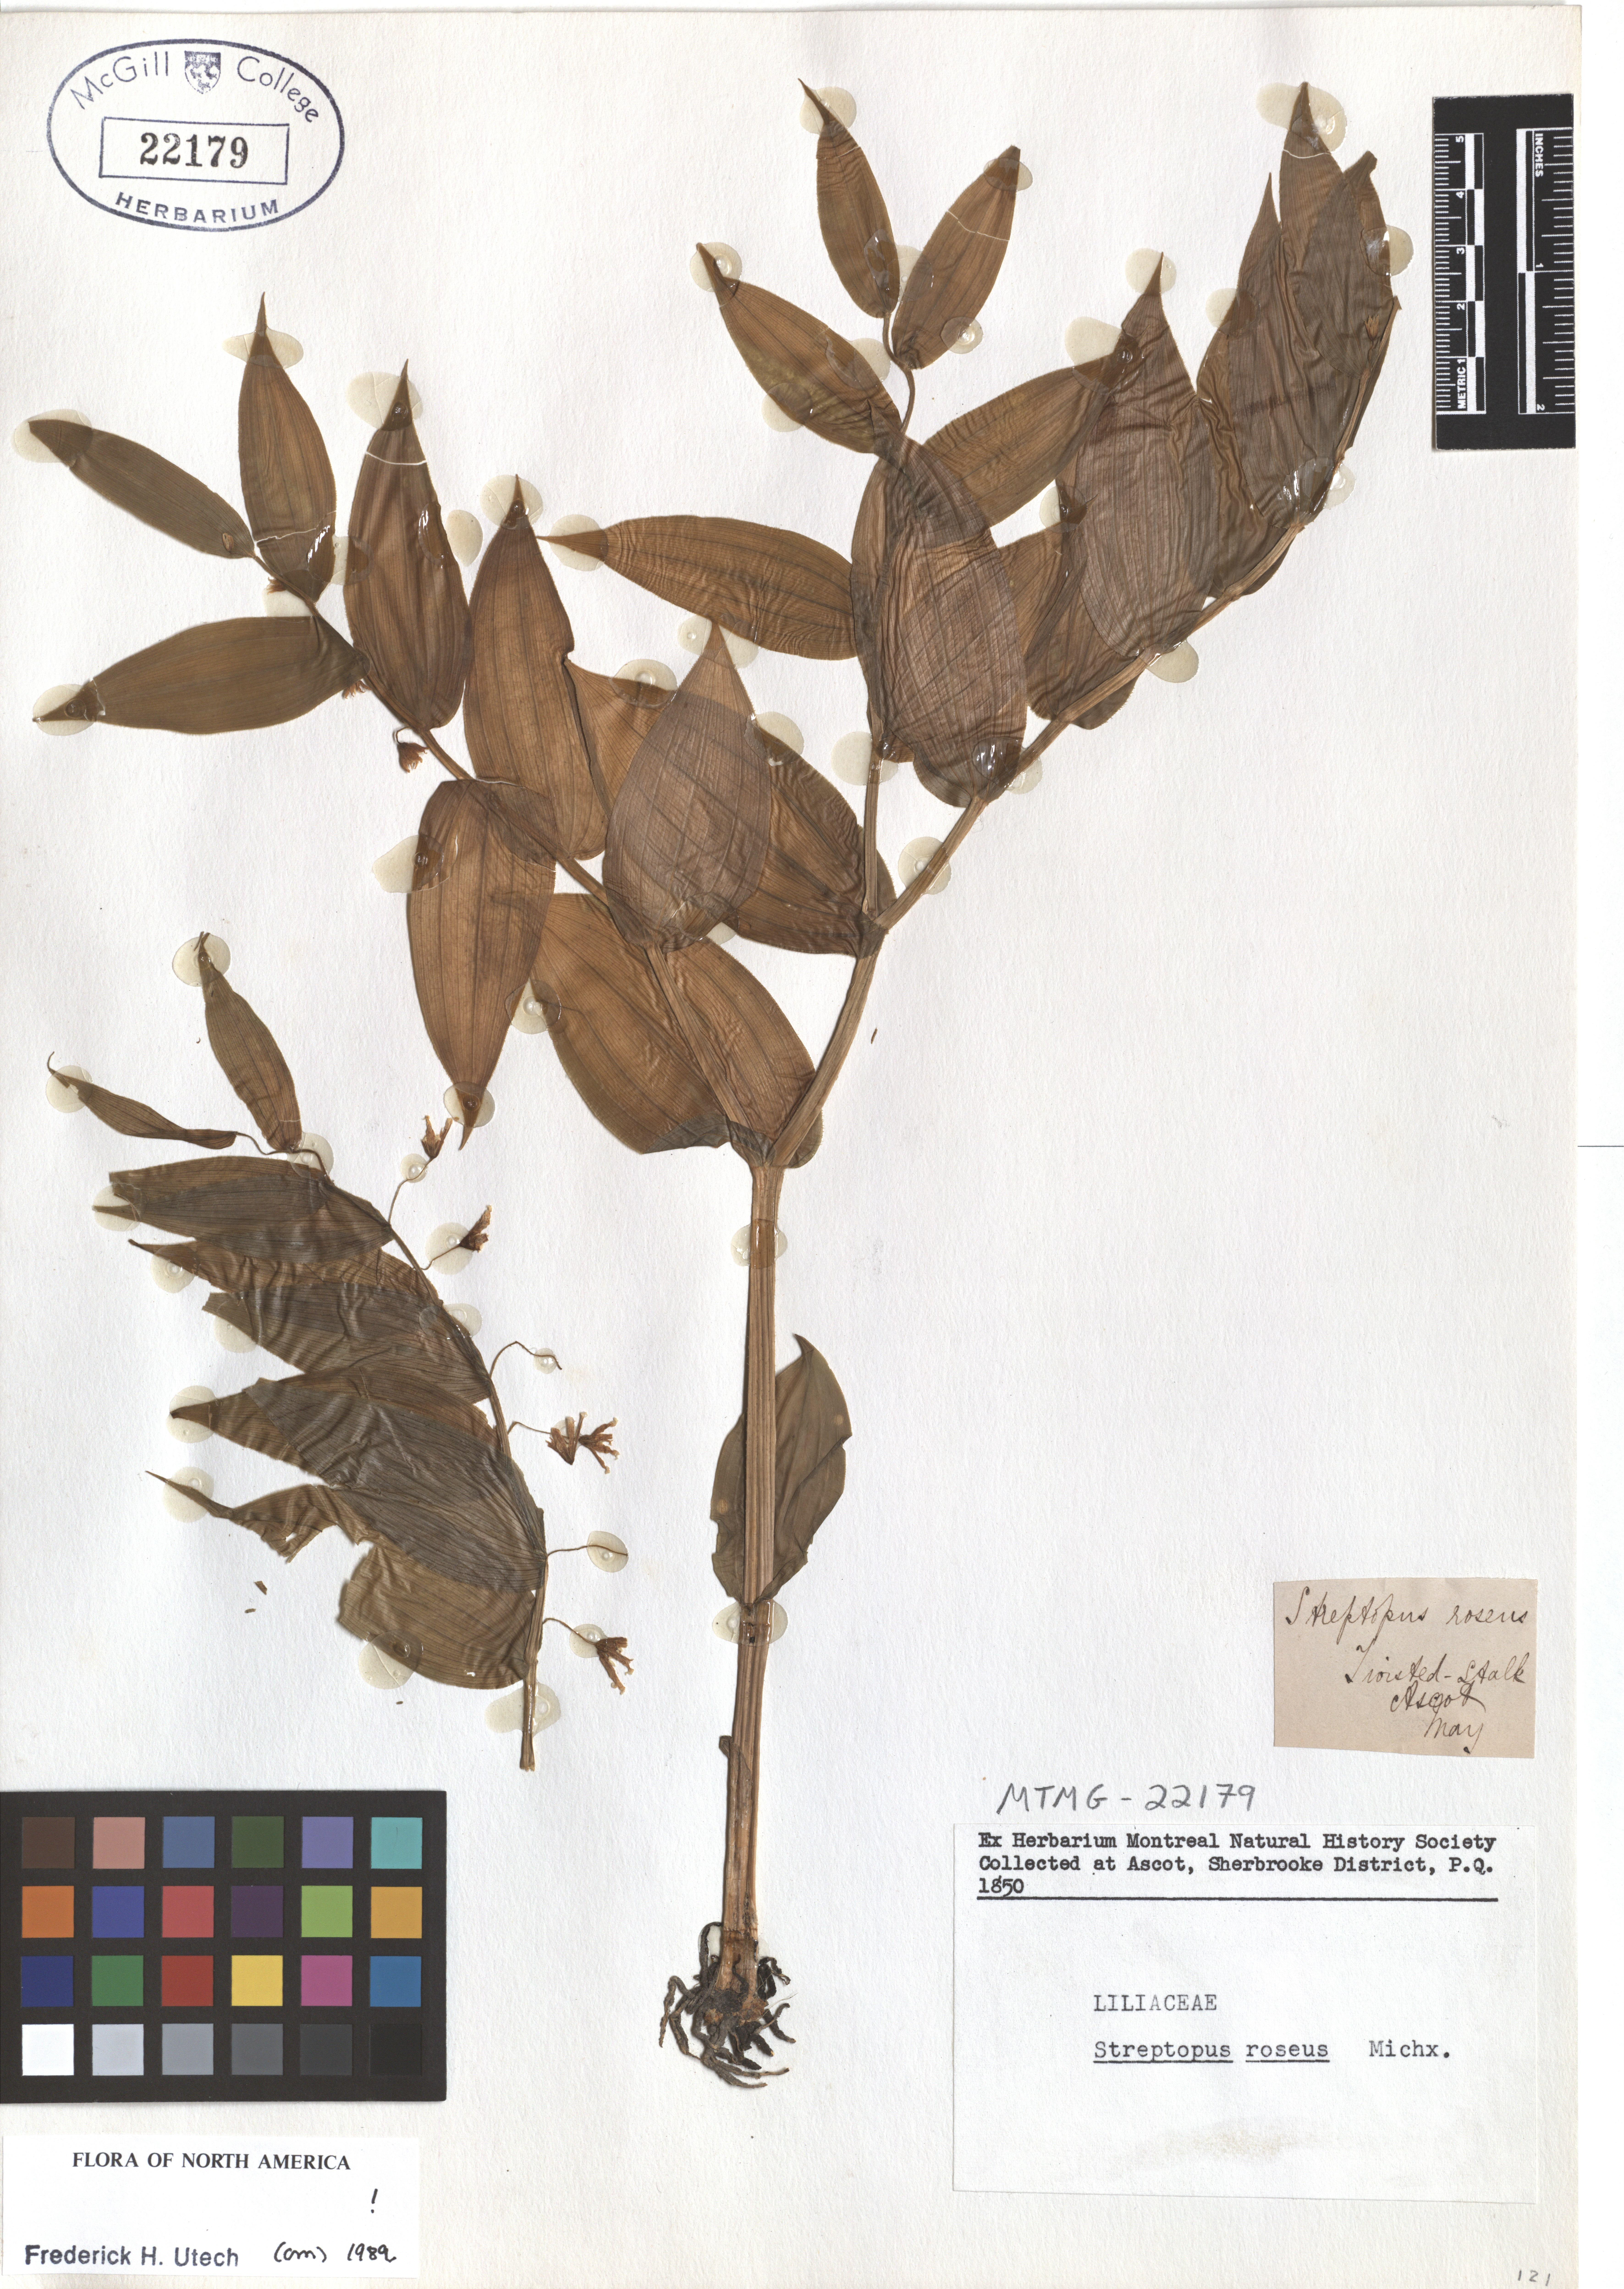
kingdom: Plantae
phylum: Tracheophyta
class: Liliopsida
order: Liliales
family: Liliaceae
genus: Streptopus
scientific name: Streptopus lanceolatus
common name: Rose mandarin
